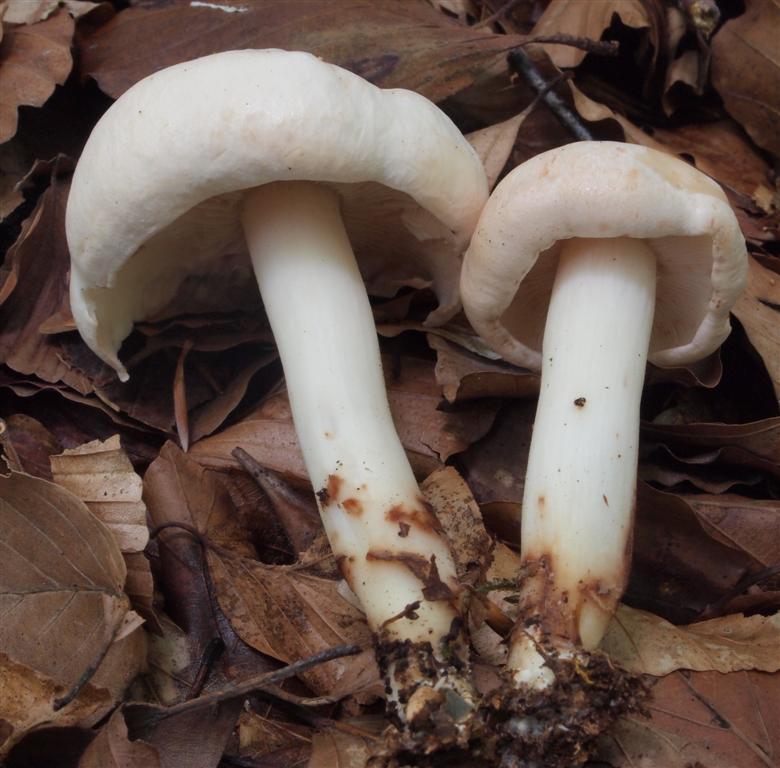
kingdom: Fungi
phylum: Basidiomycota
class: Agaricomycetes
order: Agaricales
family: Omphalotaceae
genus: Rhodocollybia
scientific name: Rhodocollybia maculata
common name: plettet fladhat
